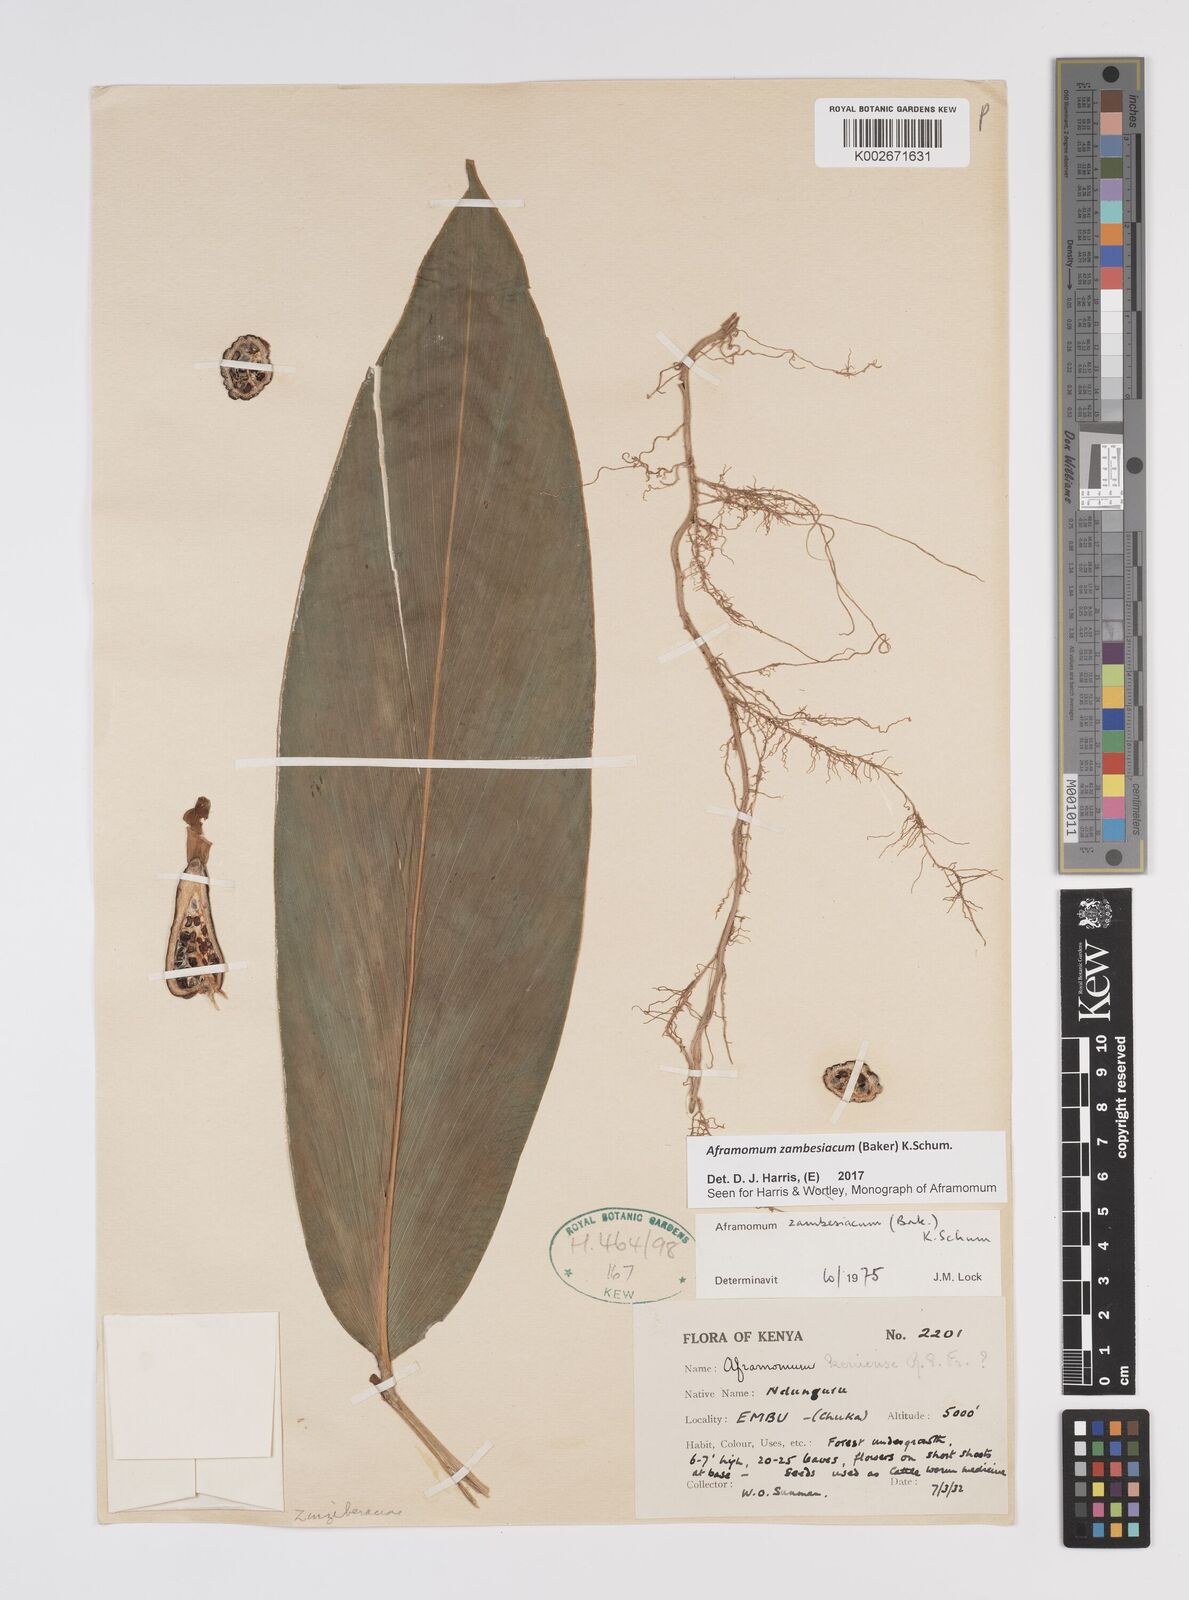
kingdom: Plantae
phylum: Tracheophyta
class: Liliopsida
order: Zingiberales
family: Zingiberaceae
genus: Aframomum
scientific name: Aframomum zambesiacum
